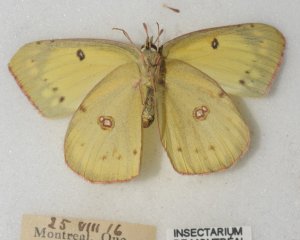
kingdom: Animalia
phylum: Arthropoda
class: Insecta
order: Lepidoptera
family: Pieridae
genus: Colias
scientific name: Colias philodice
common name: Clouded Sulphur
